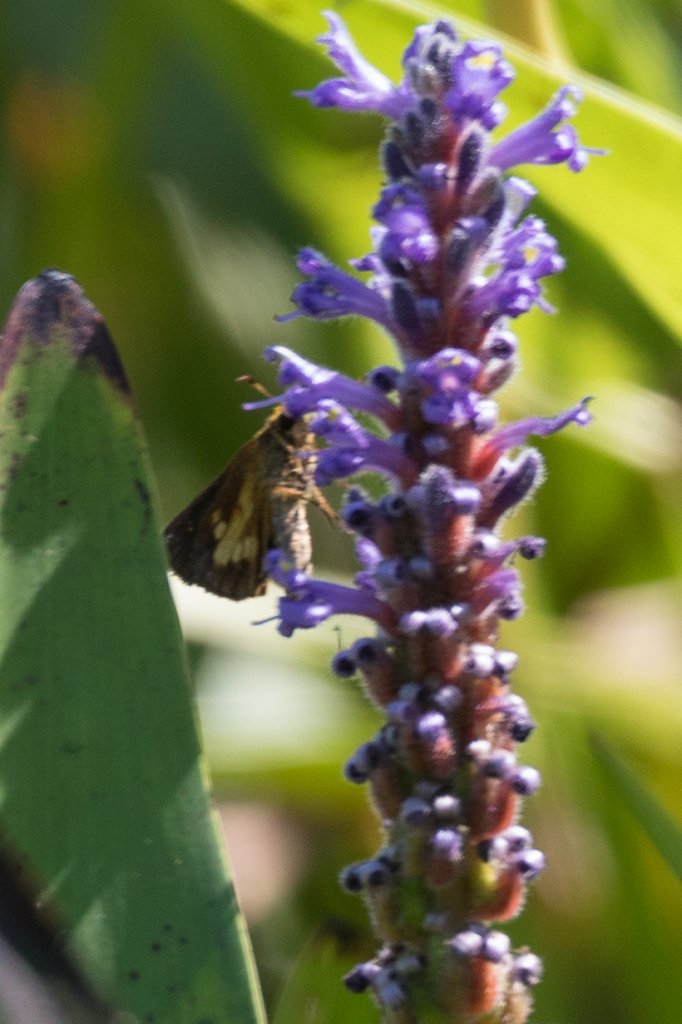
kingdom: Animalia
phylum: Arthropoda
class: Insecta
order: Lepidoptera
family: Hesperiidae
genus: Poanes
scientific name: Poanes massasoit
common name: Mulberry Wing
